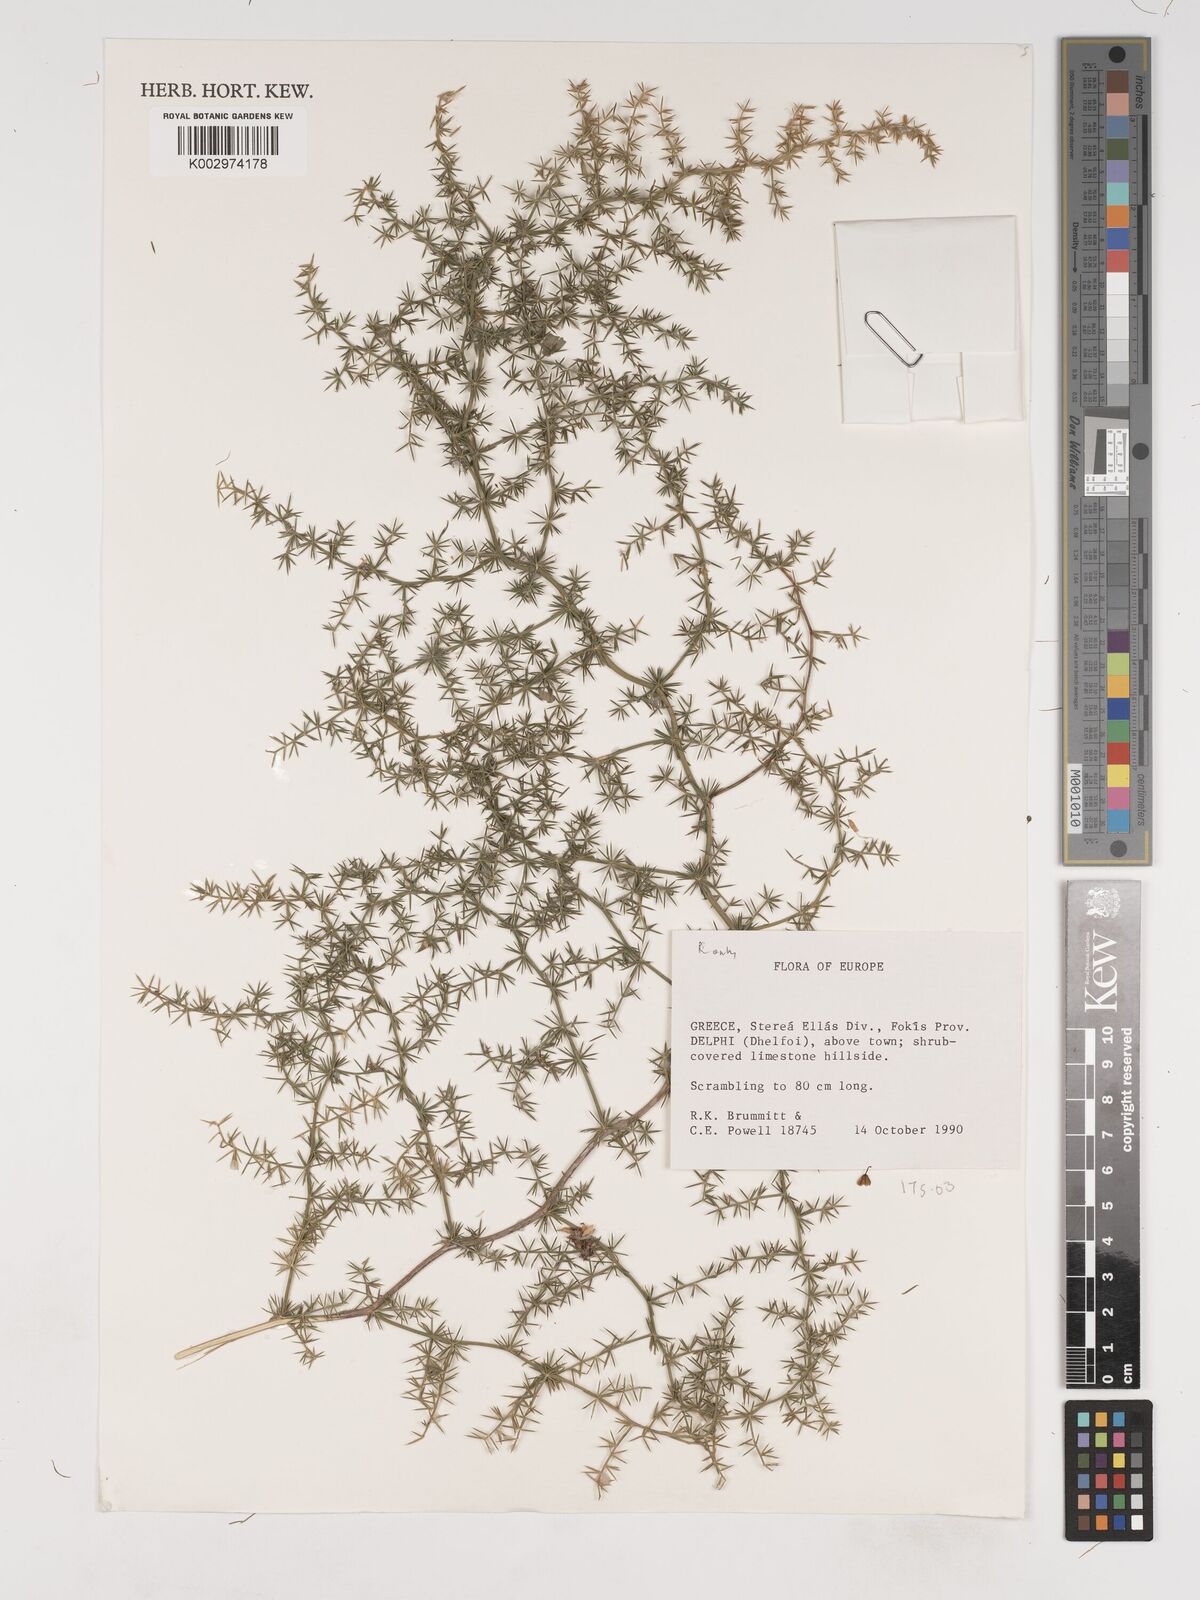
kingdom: Plantae
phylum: Tracheophyta
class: Liliopsida
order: Asparagales
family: Asparagaceae
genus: Asparagus
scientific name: Asparagus officinalis
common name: Garden asparagus
